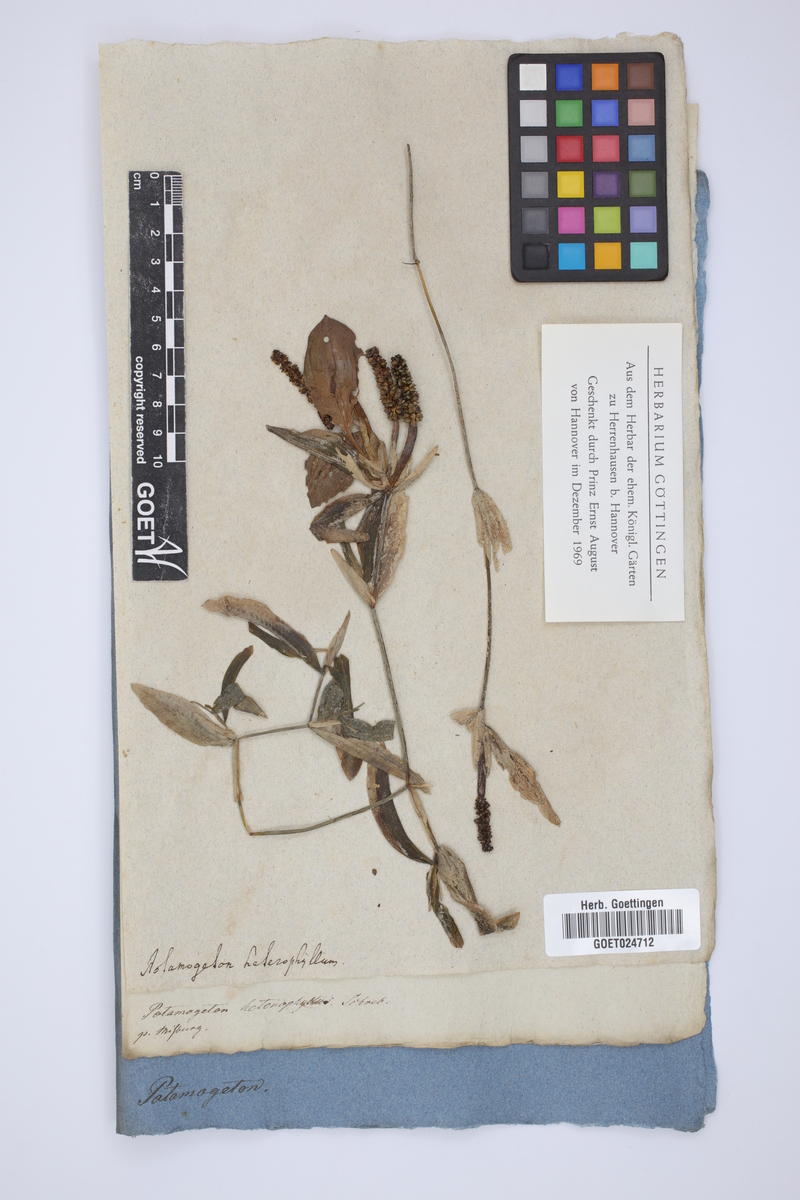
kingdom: Plantae
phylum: Tracheophyta
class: Liliopsida
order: Alismatales
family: Potamogetonaceae
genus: Potamogeton
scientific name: Potamogeton gramineus
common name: Various-leaved pondweed
